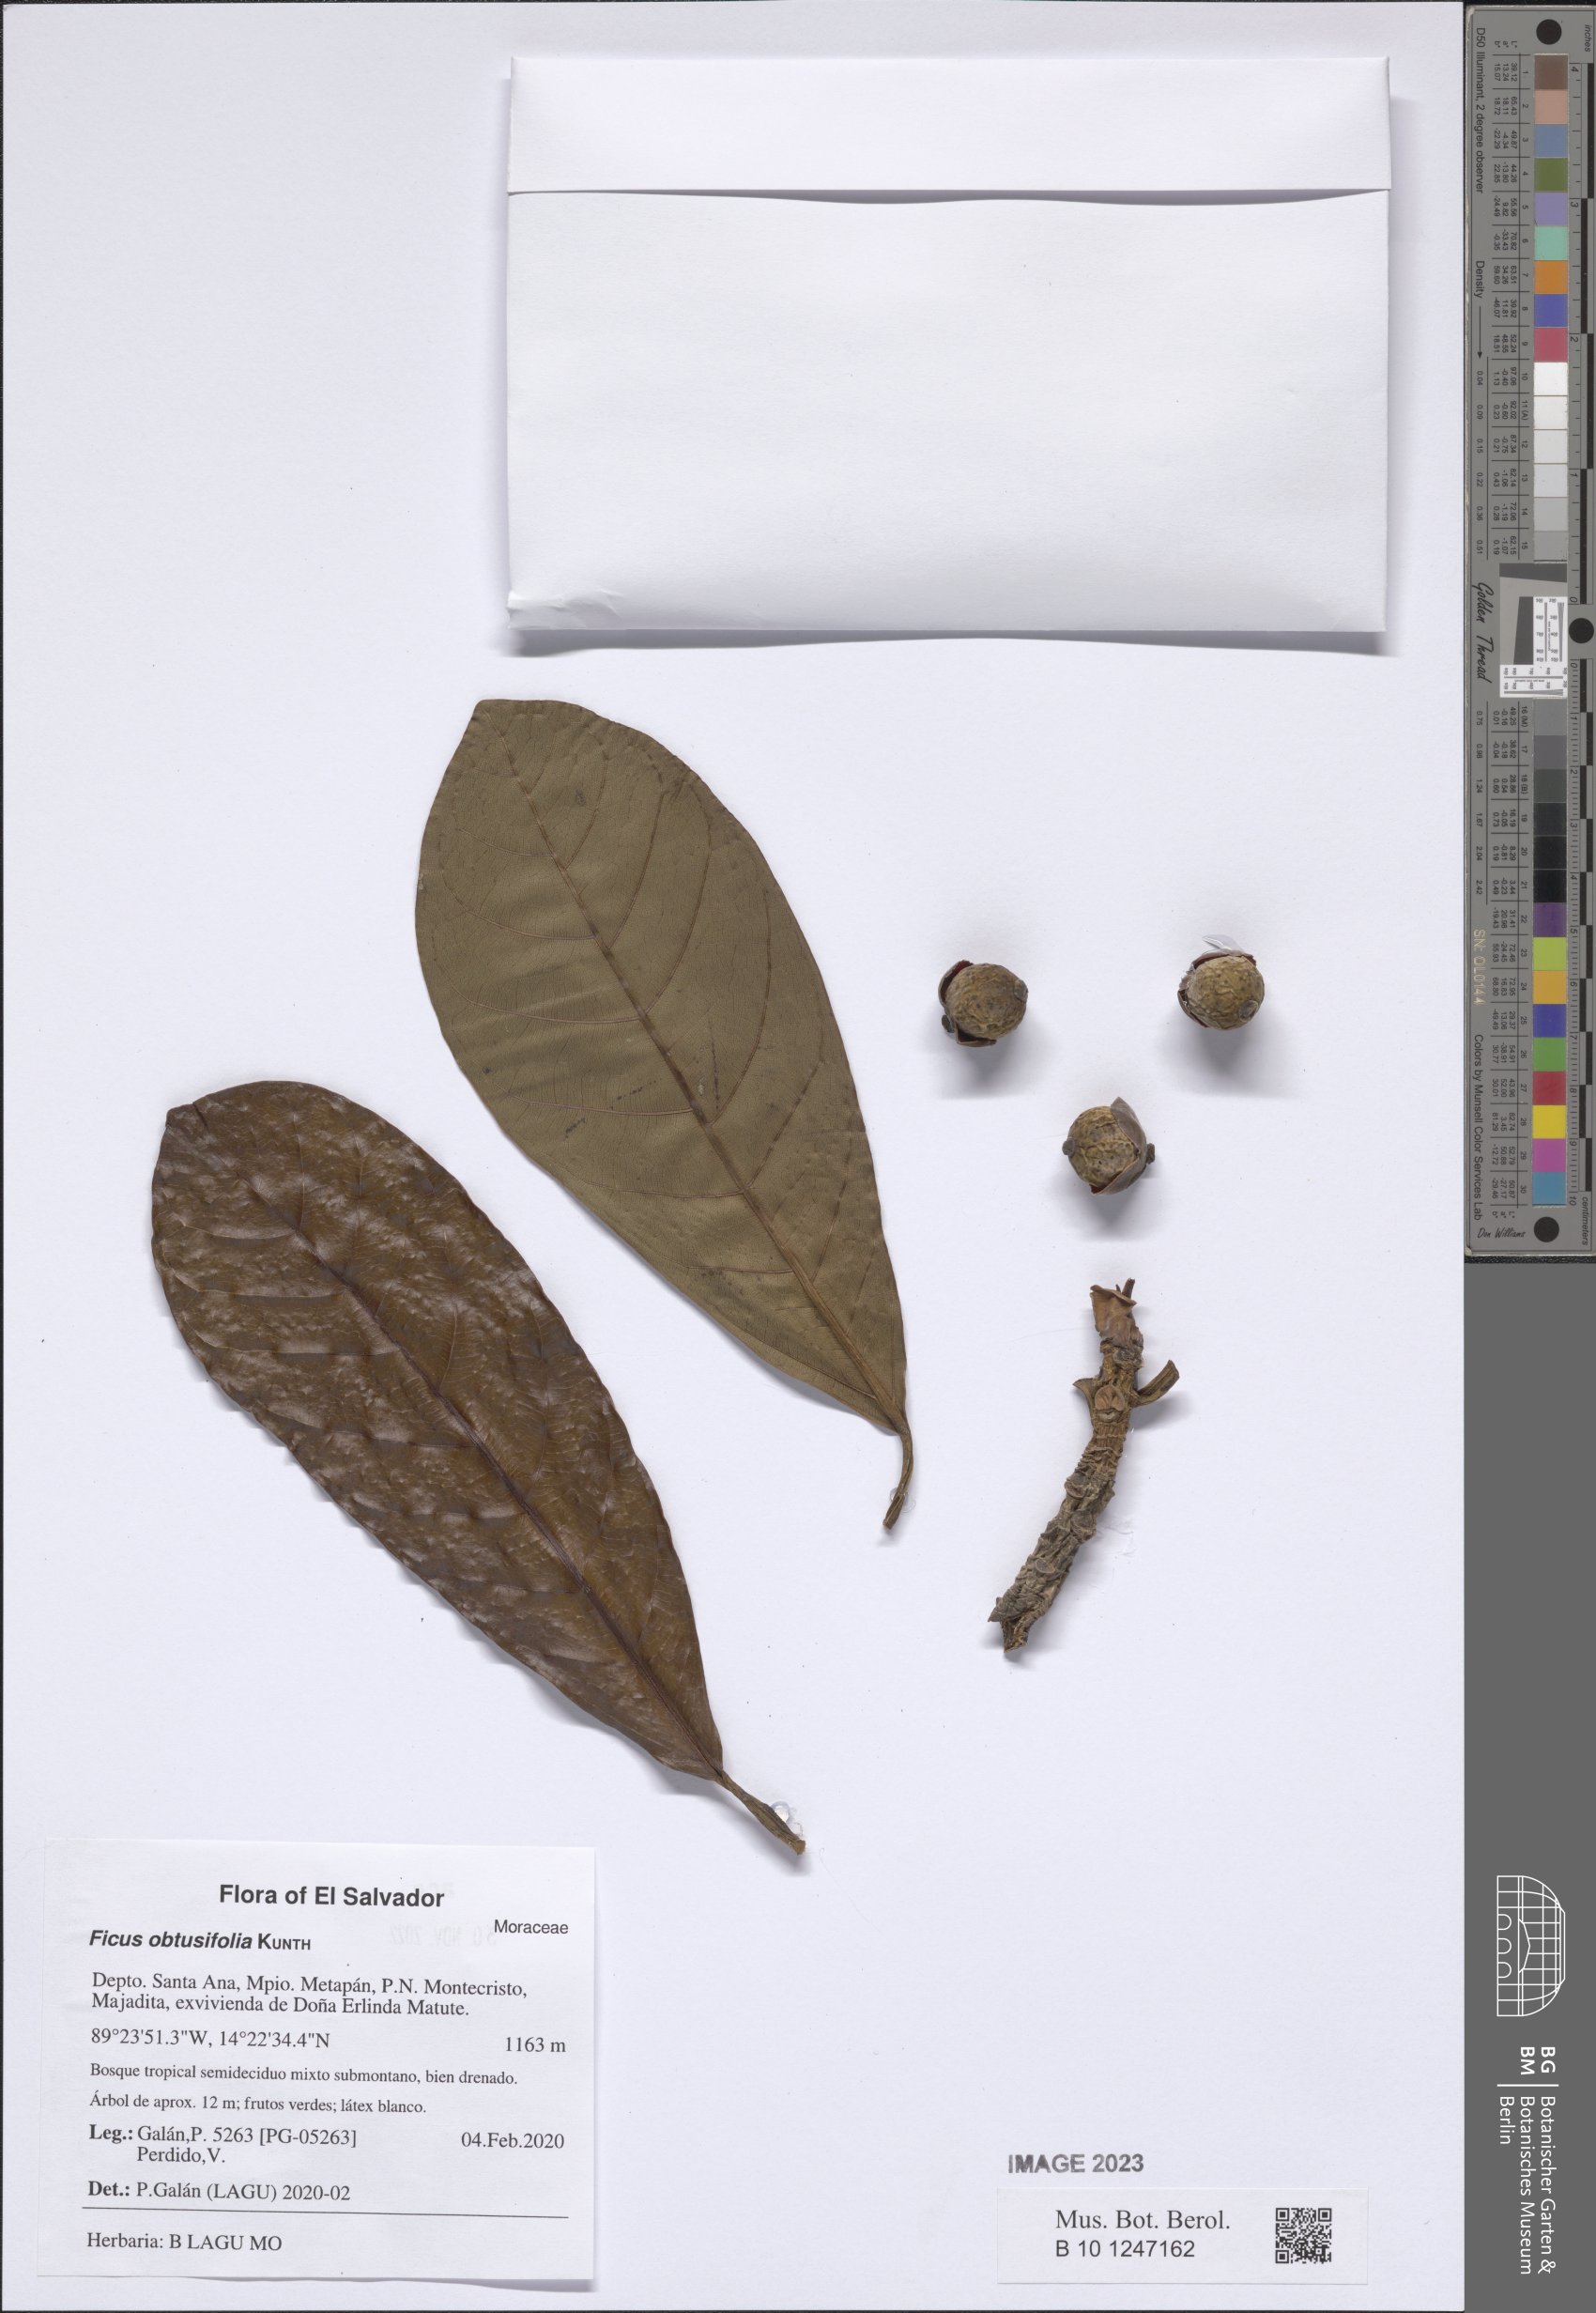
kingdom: Plantae
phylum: Tracheophyta
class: Magnoliopsida
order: Rosales
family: Moraceae
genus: Ficus
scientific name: Ficus obtusifolia
